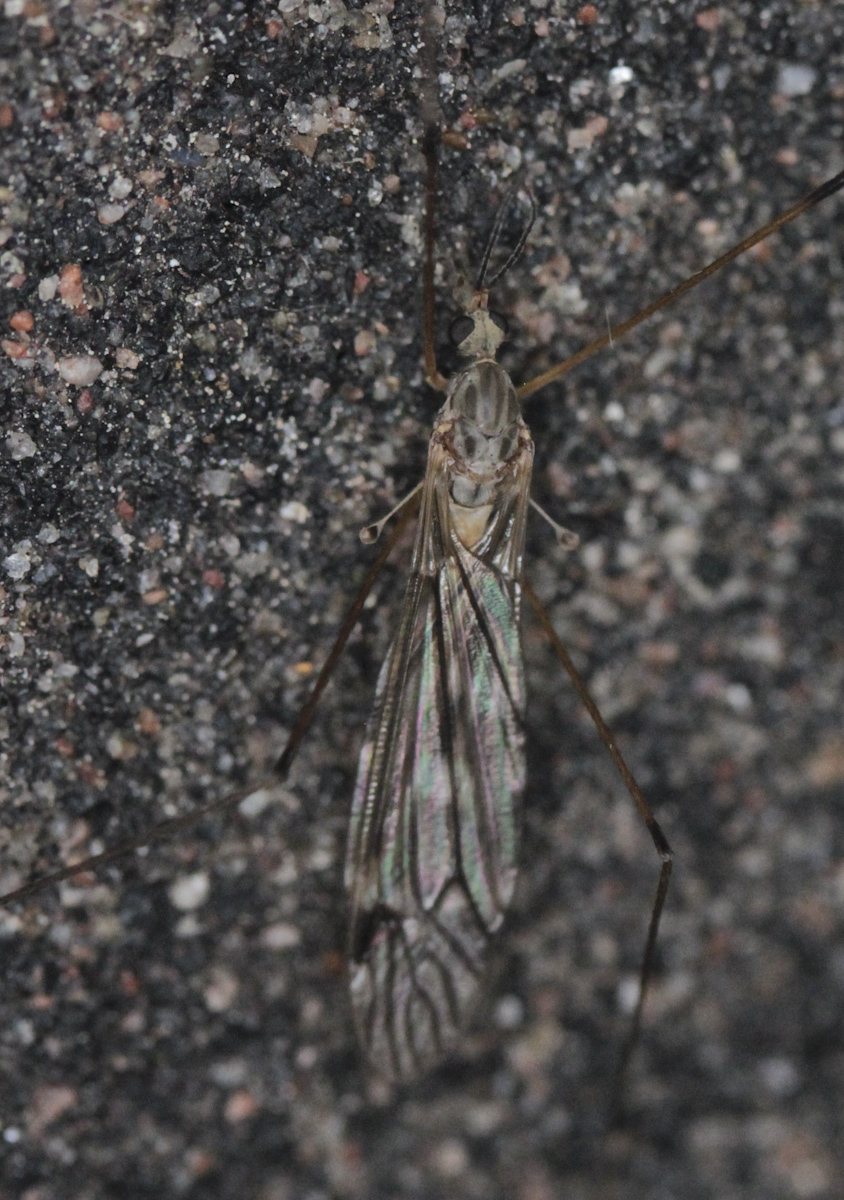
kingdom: Animalia
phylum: Arthropoda
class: Insecta
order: Diptera
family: Tipulidae
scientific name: Tipulidae
